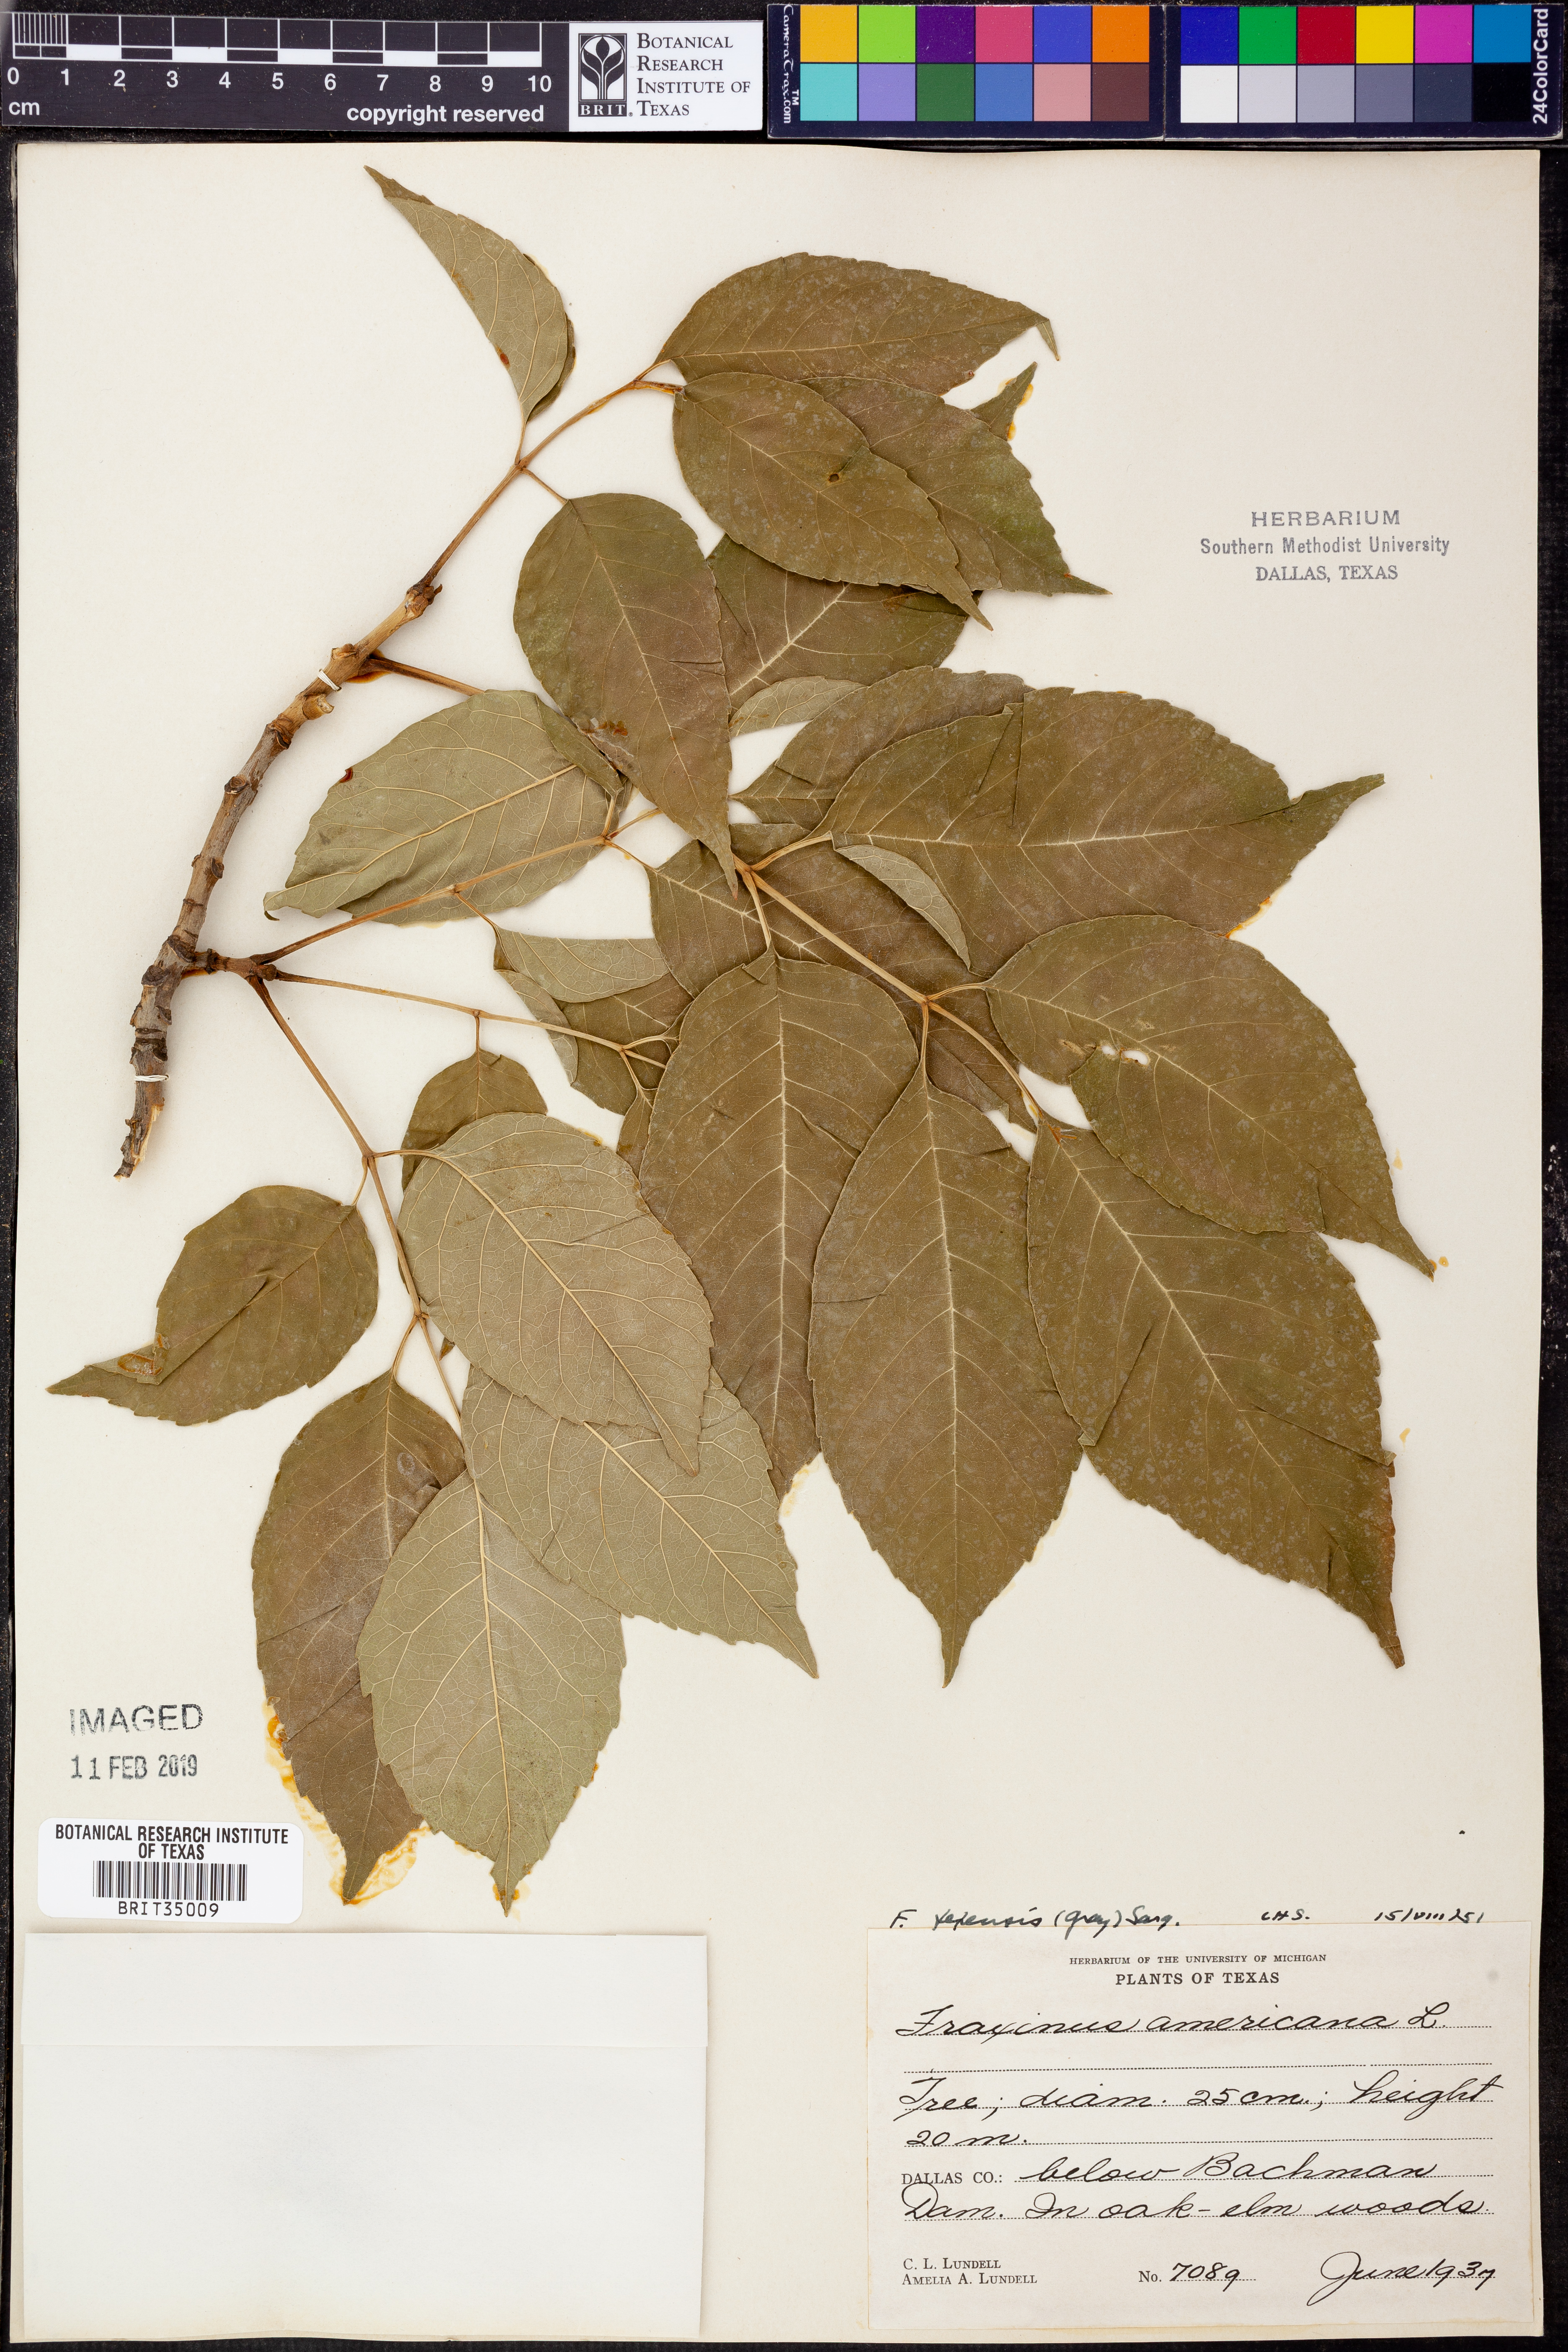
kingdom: Plantae
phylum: Tracheophyta
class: Magnoliopsida
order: Lamiales
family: Oleaceae
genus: Fraxinus
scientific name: Fraxinus albicans
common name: Texas ash
